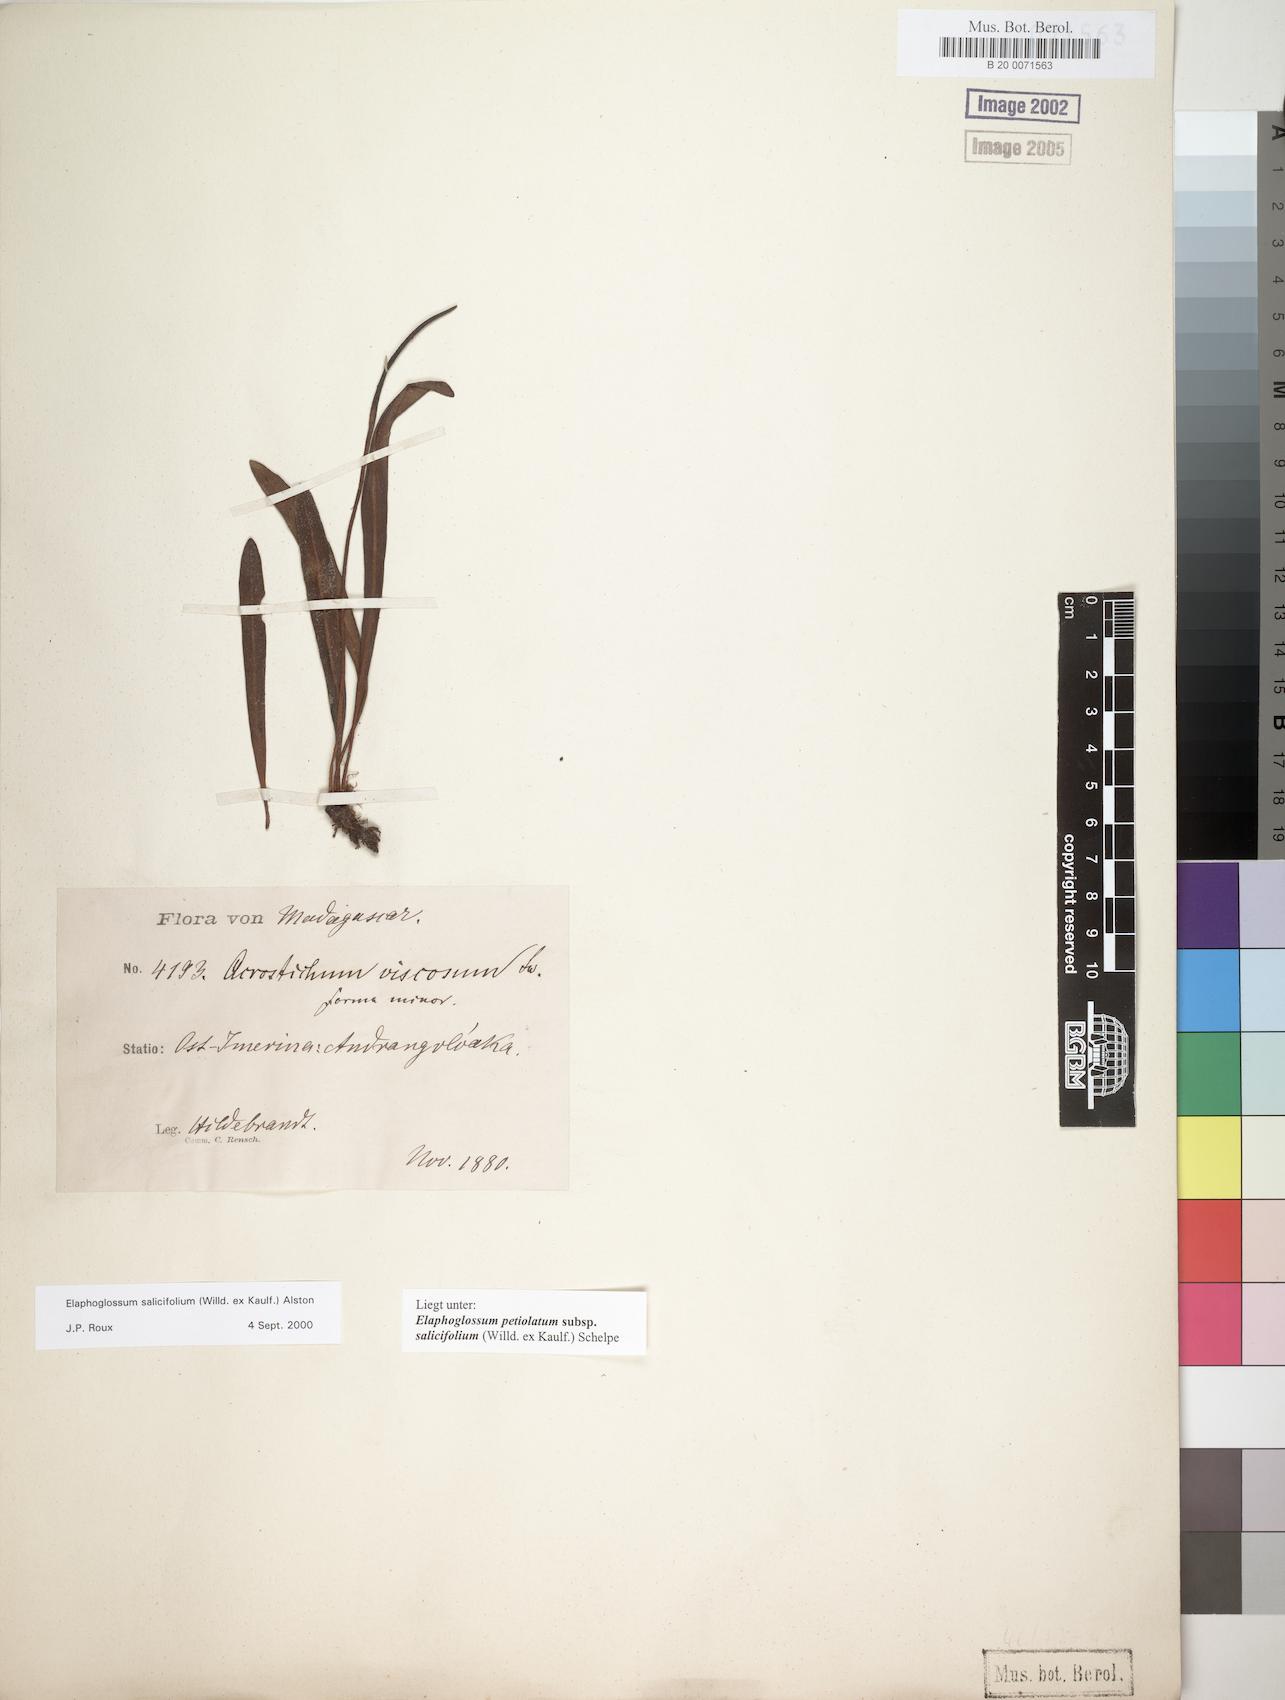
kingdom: Plantae
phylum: Tracheophyta
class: Polypodiopsida
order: Polypodiales
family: Dryopteridaceae
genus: Elaphoglossum
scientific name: Elaphoglossum lancifolium
